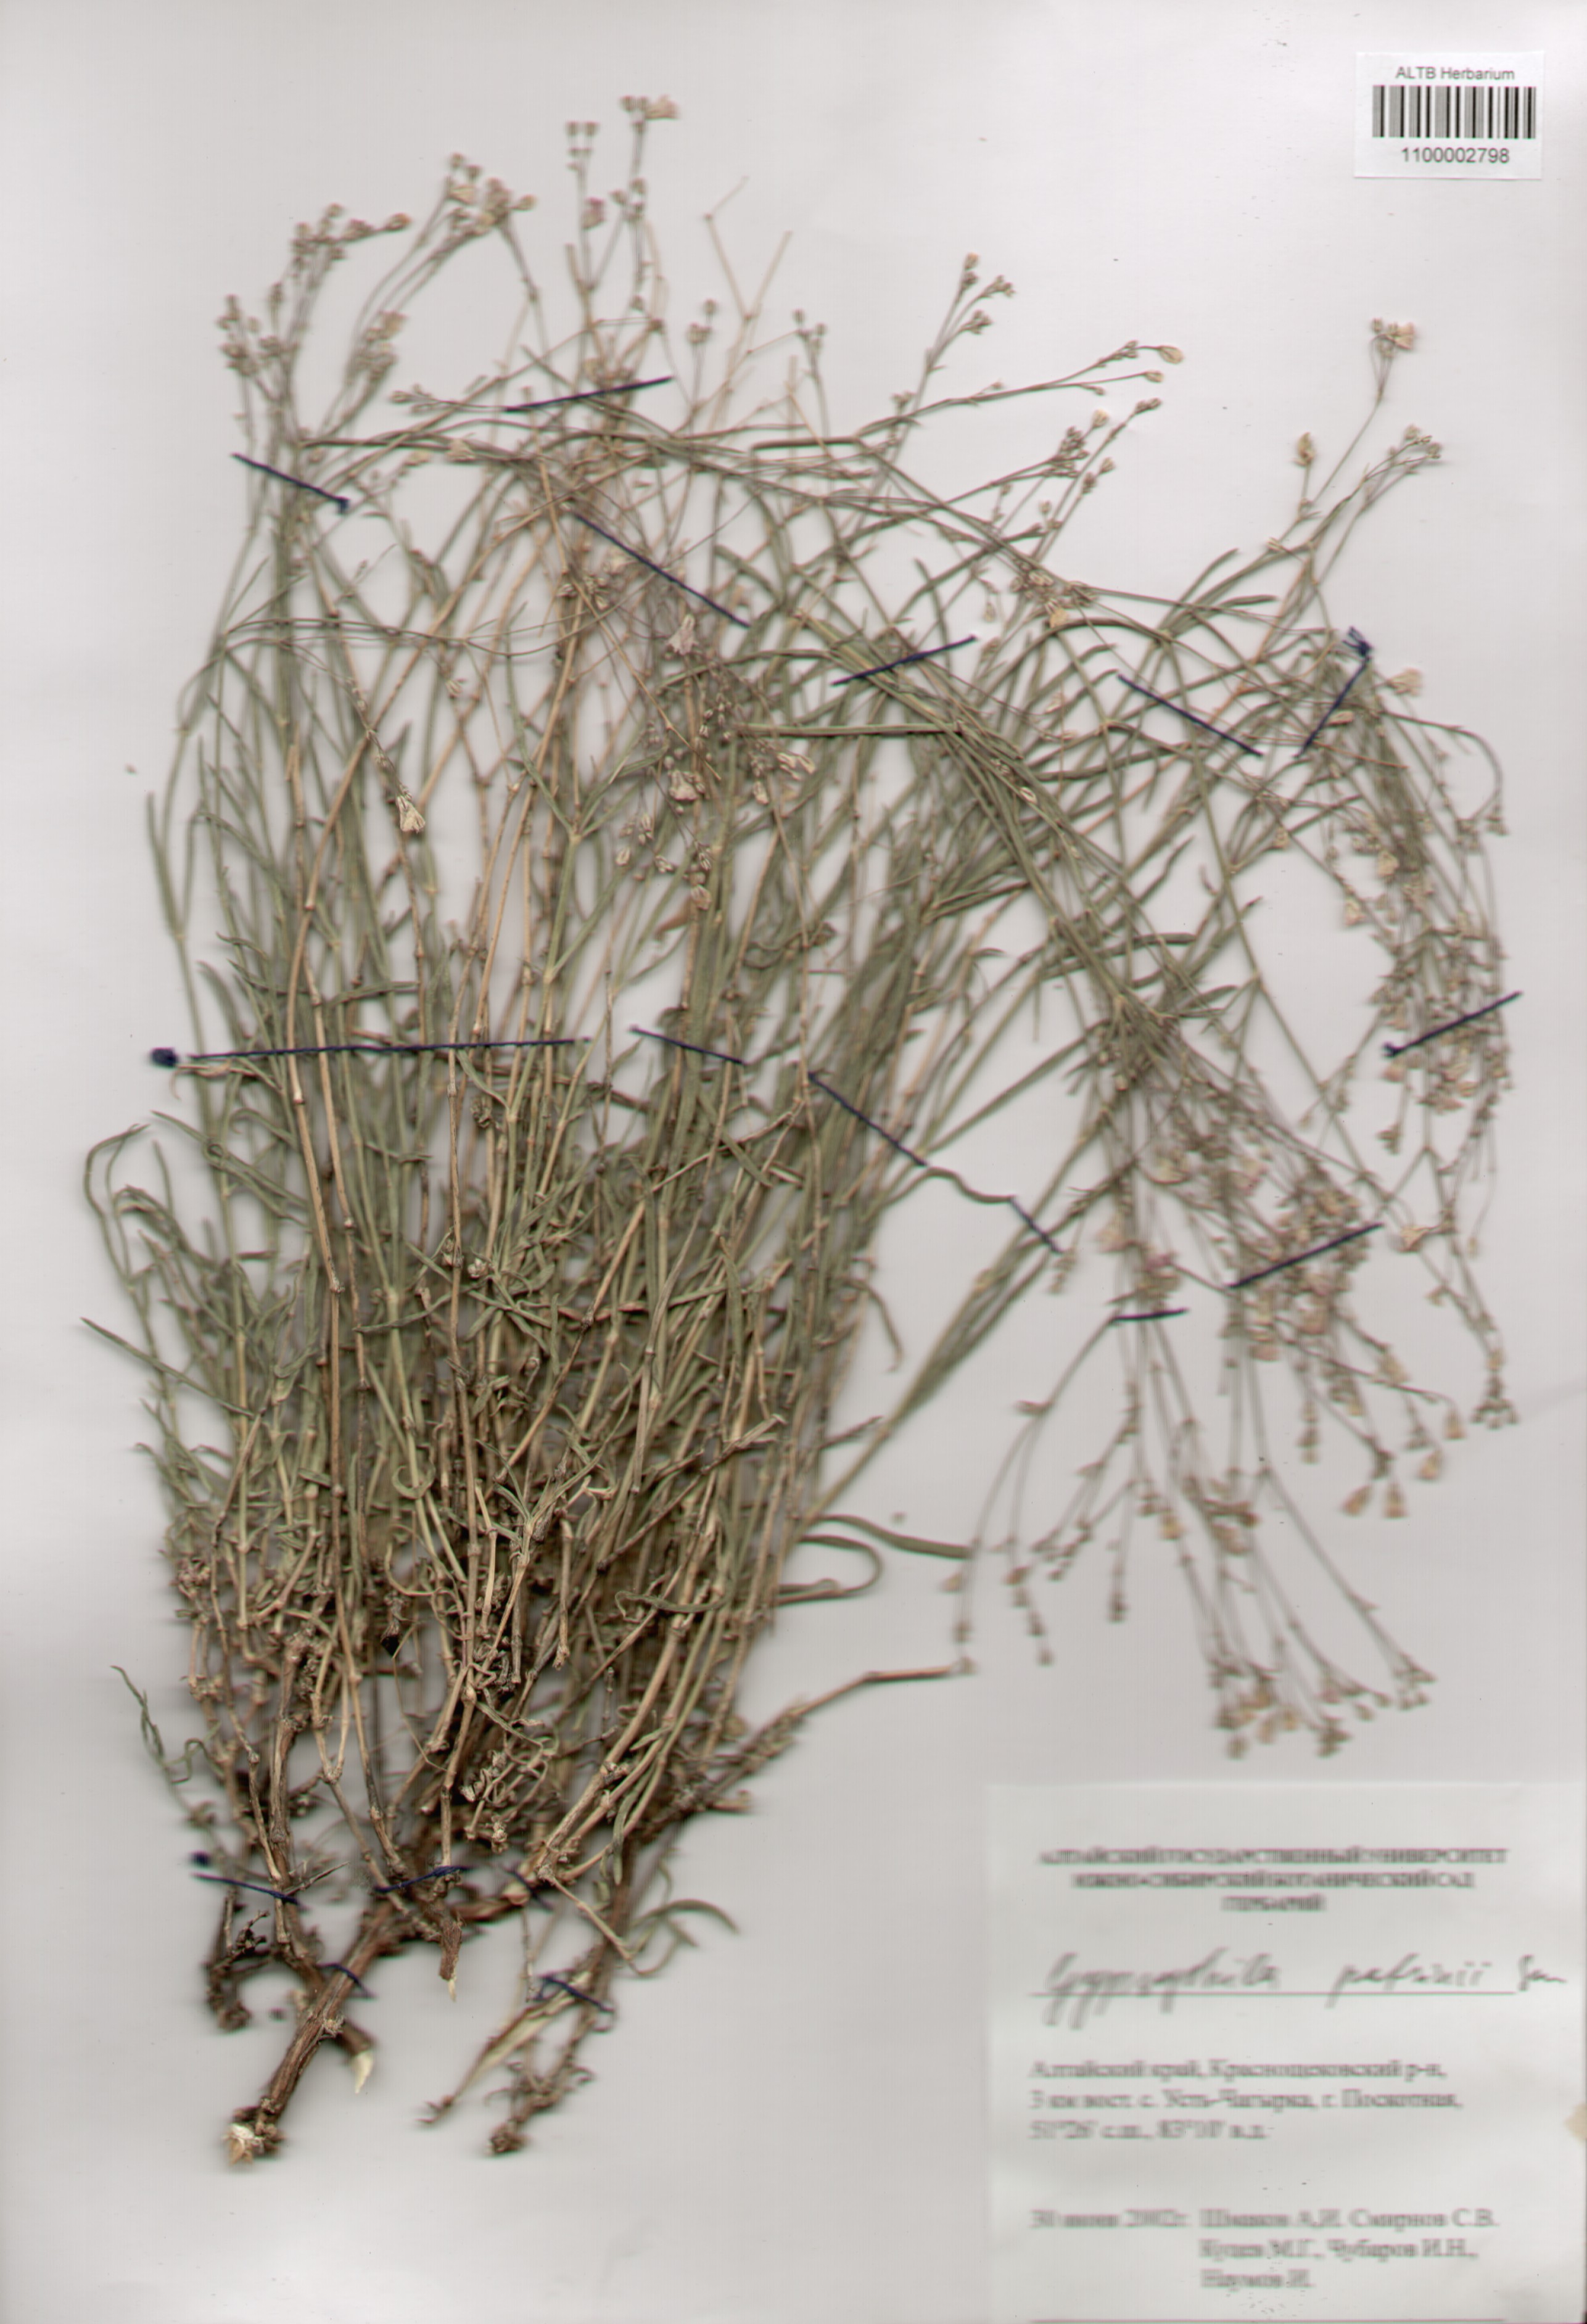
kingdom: Plantae
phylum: Tracheophyta
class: Magnoliopsida
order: Caryophyllales
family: Caryophyllaceae
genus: Gypsophila
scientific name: Gypsophila patrinii
